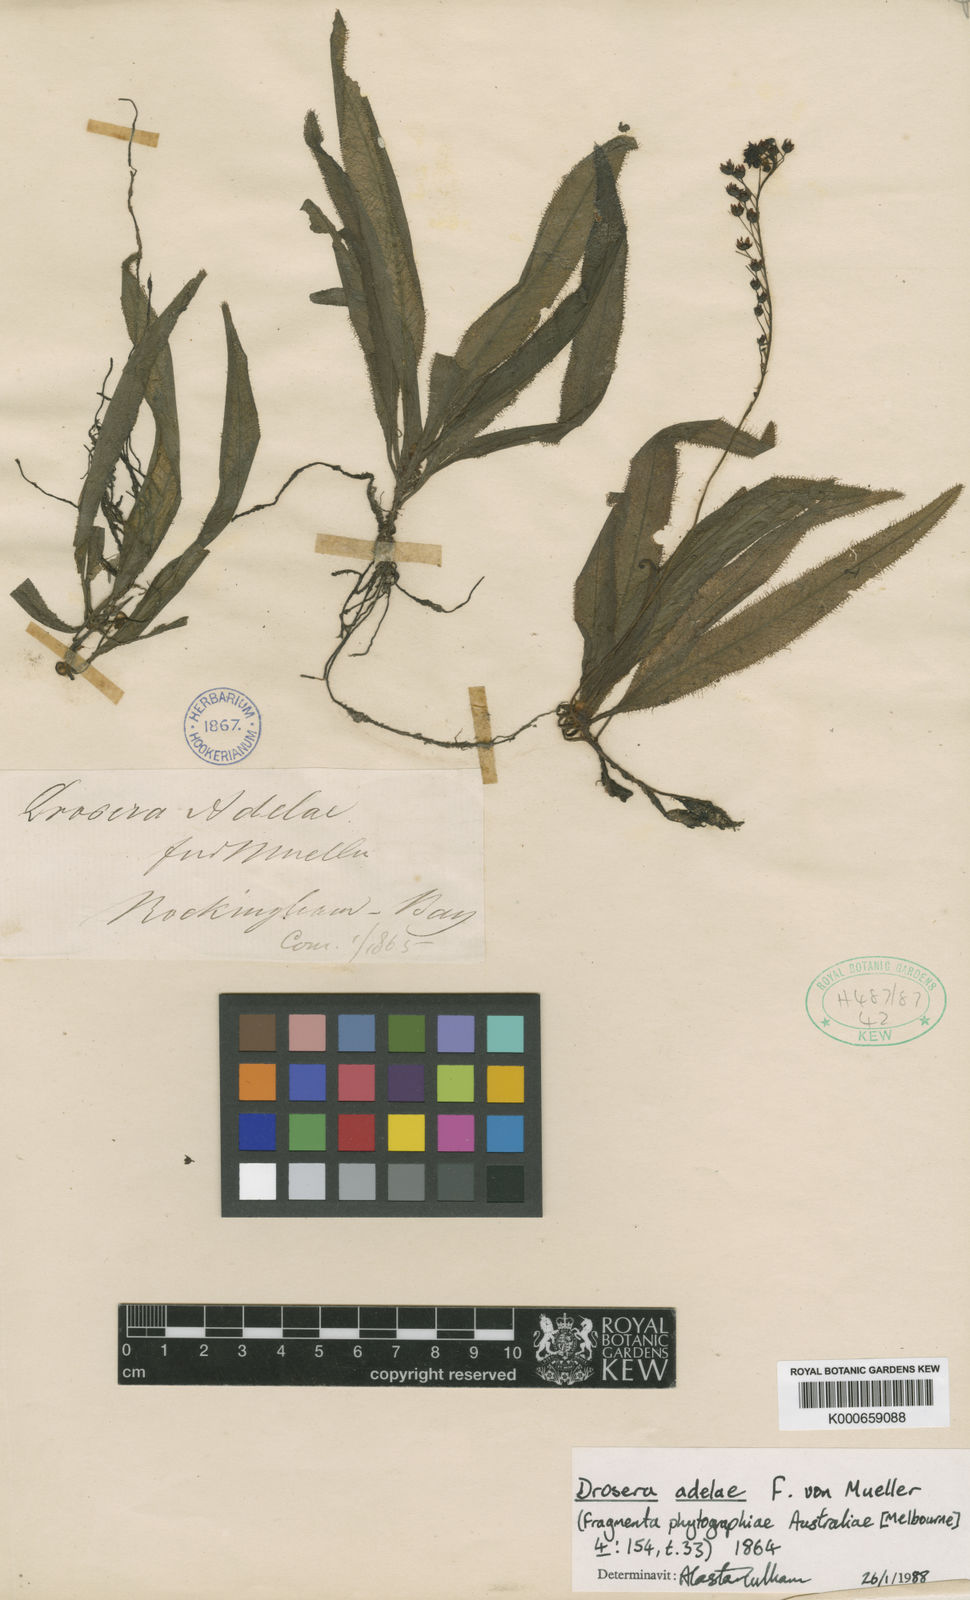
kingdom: Plantae
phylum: Tracheophyta
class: Magnoliopsida
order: Caryophyllales
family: Droseraceae
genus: Drosera
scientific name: Drosera adelae
